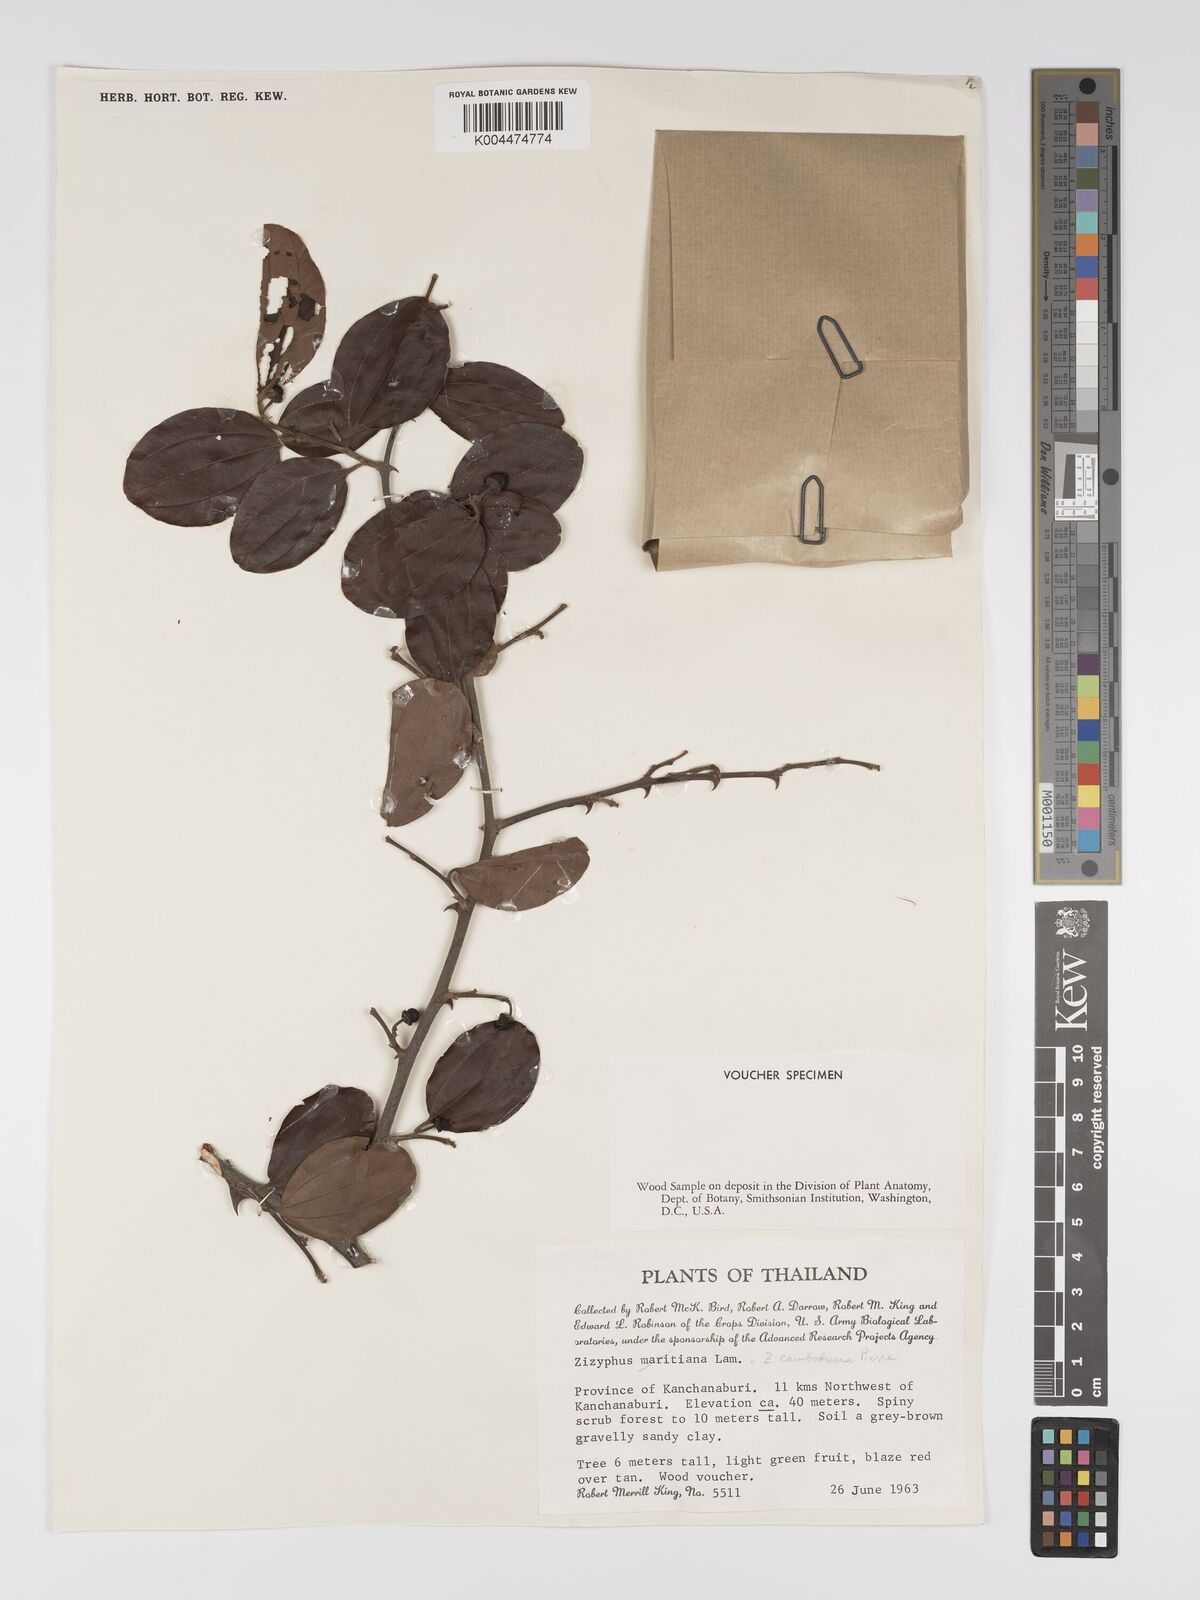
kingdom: Plantae
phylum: Tracheophyta
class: Magnoliopsida
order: Rosales
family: Rhamnaceae
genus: Ziziphus
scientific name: Ziziphus cambodiana
